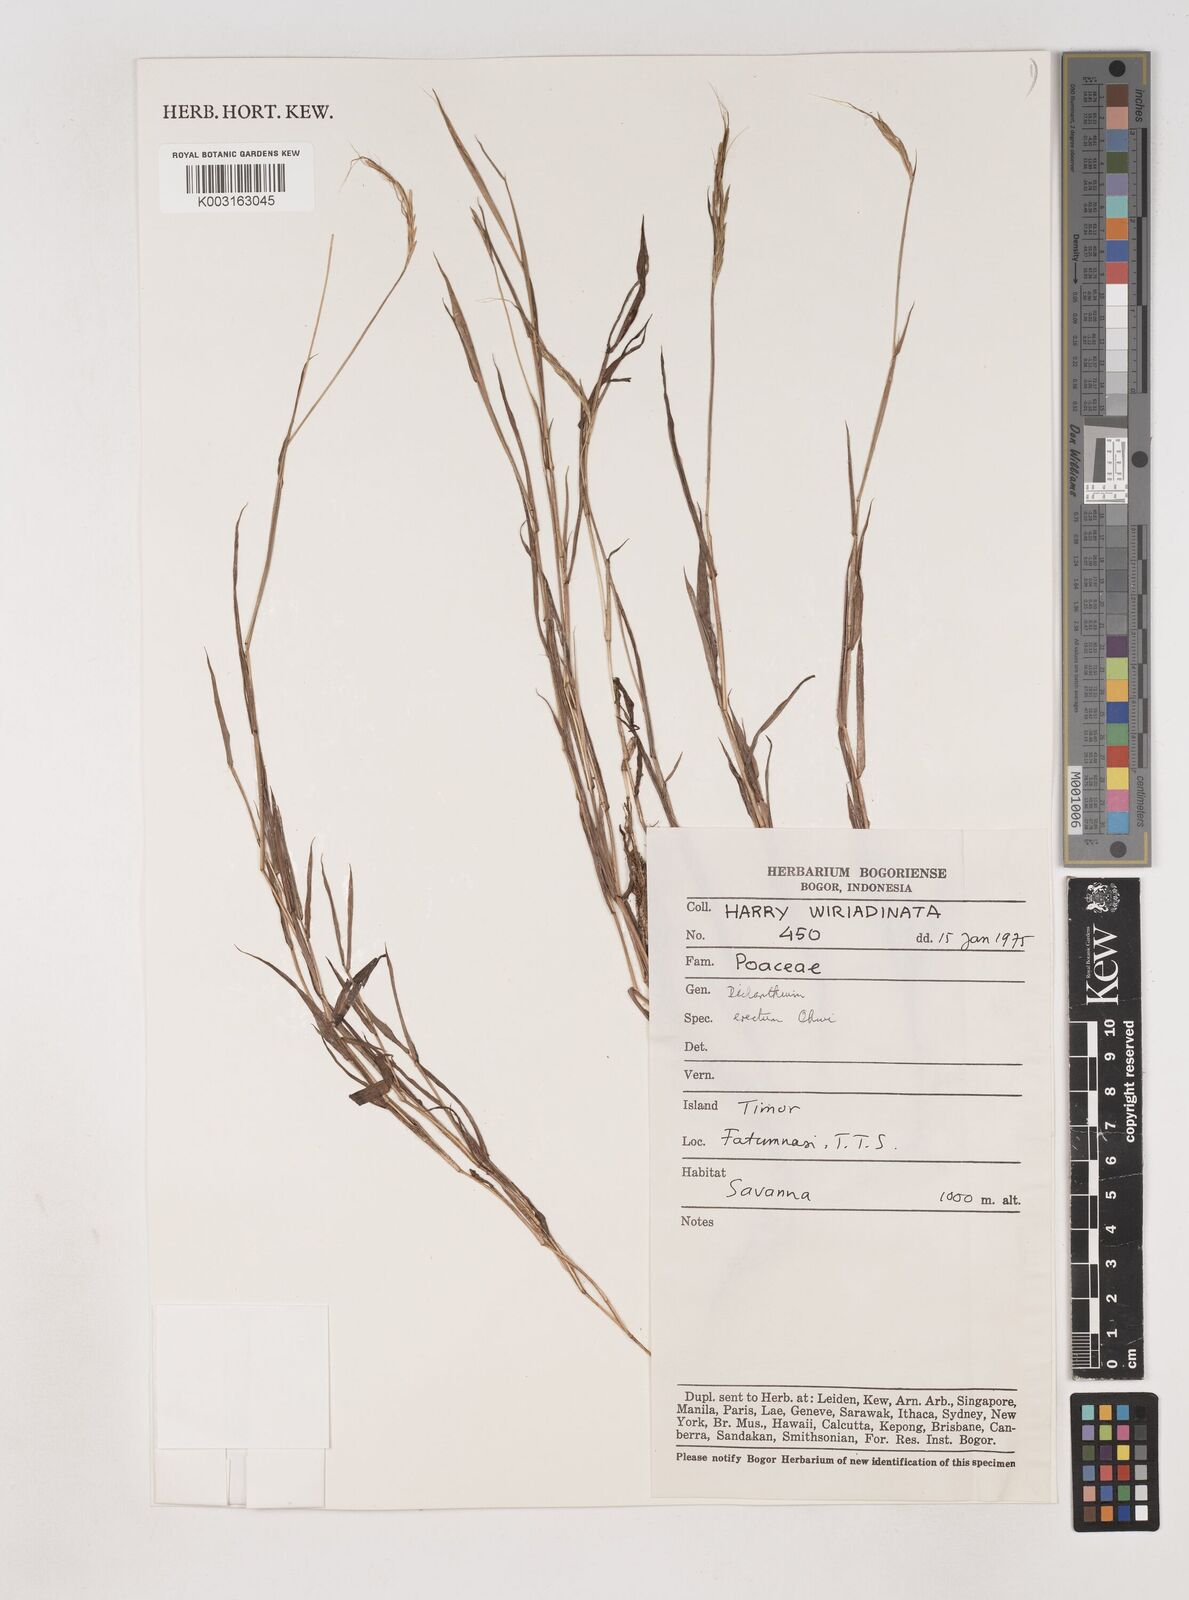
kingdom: Plantae
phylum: Tracheophyta
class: Liliopsida
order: Poales
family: Poaceae
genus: Dichanthium
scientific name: Dichanthium aristatum
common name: Angleton bluestem
